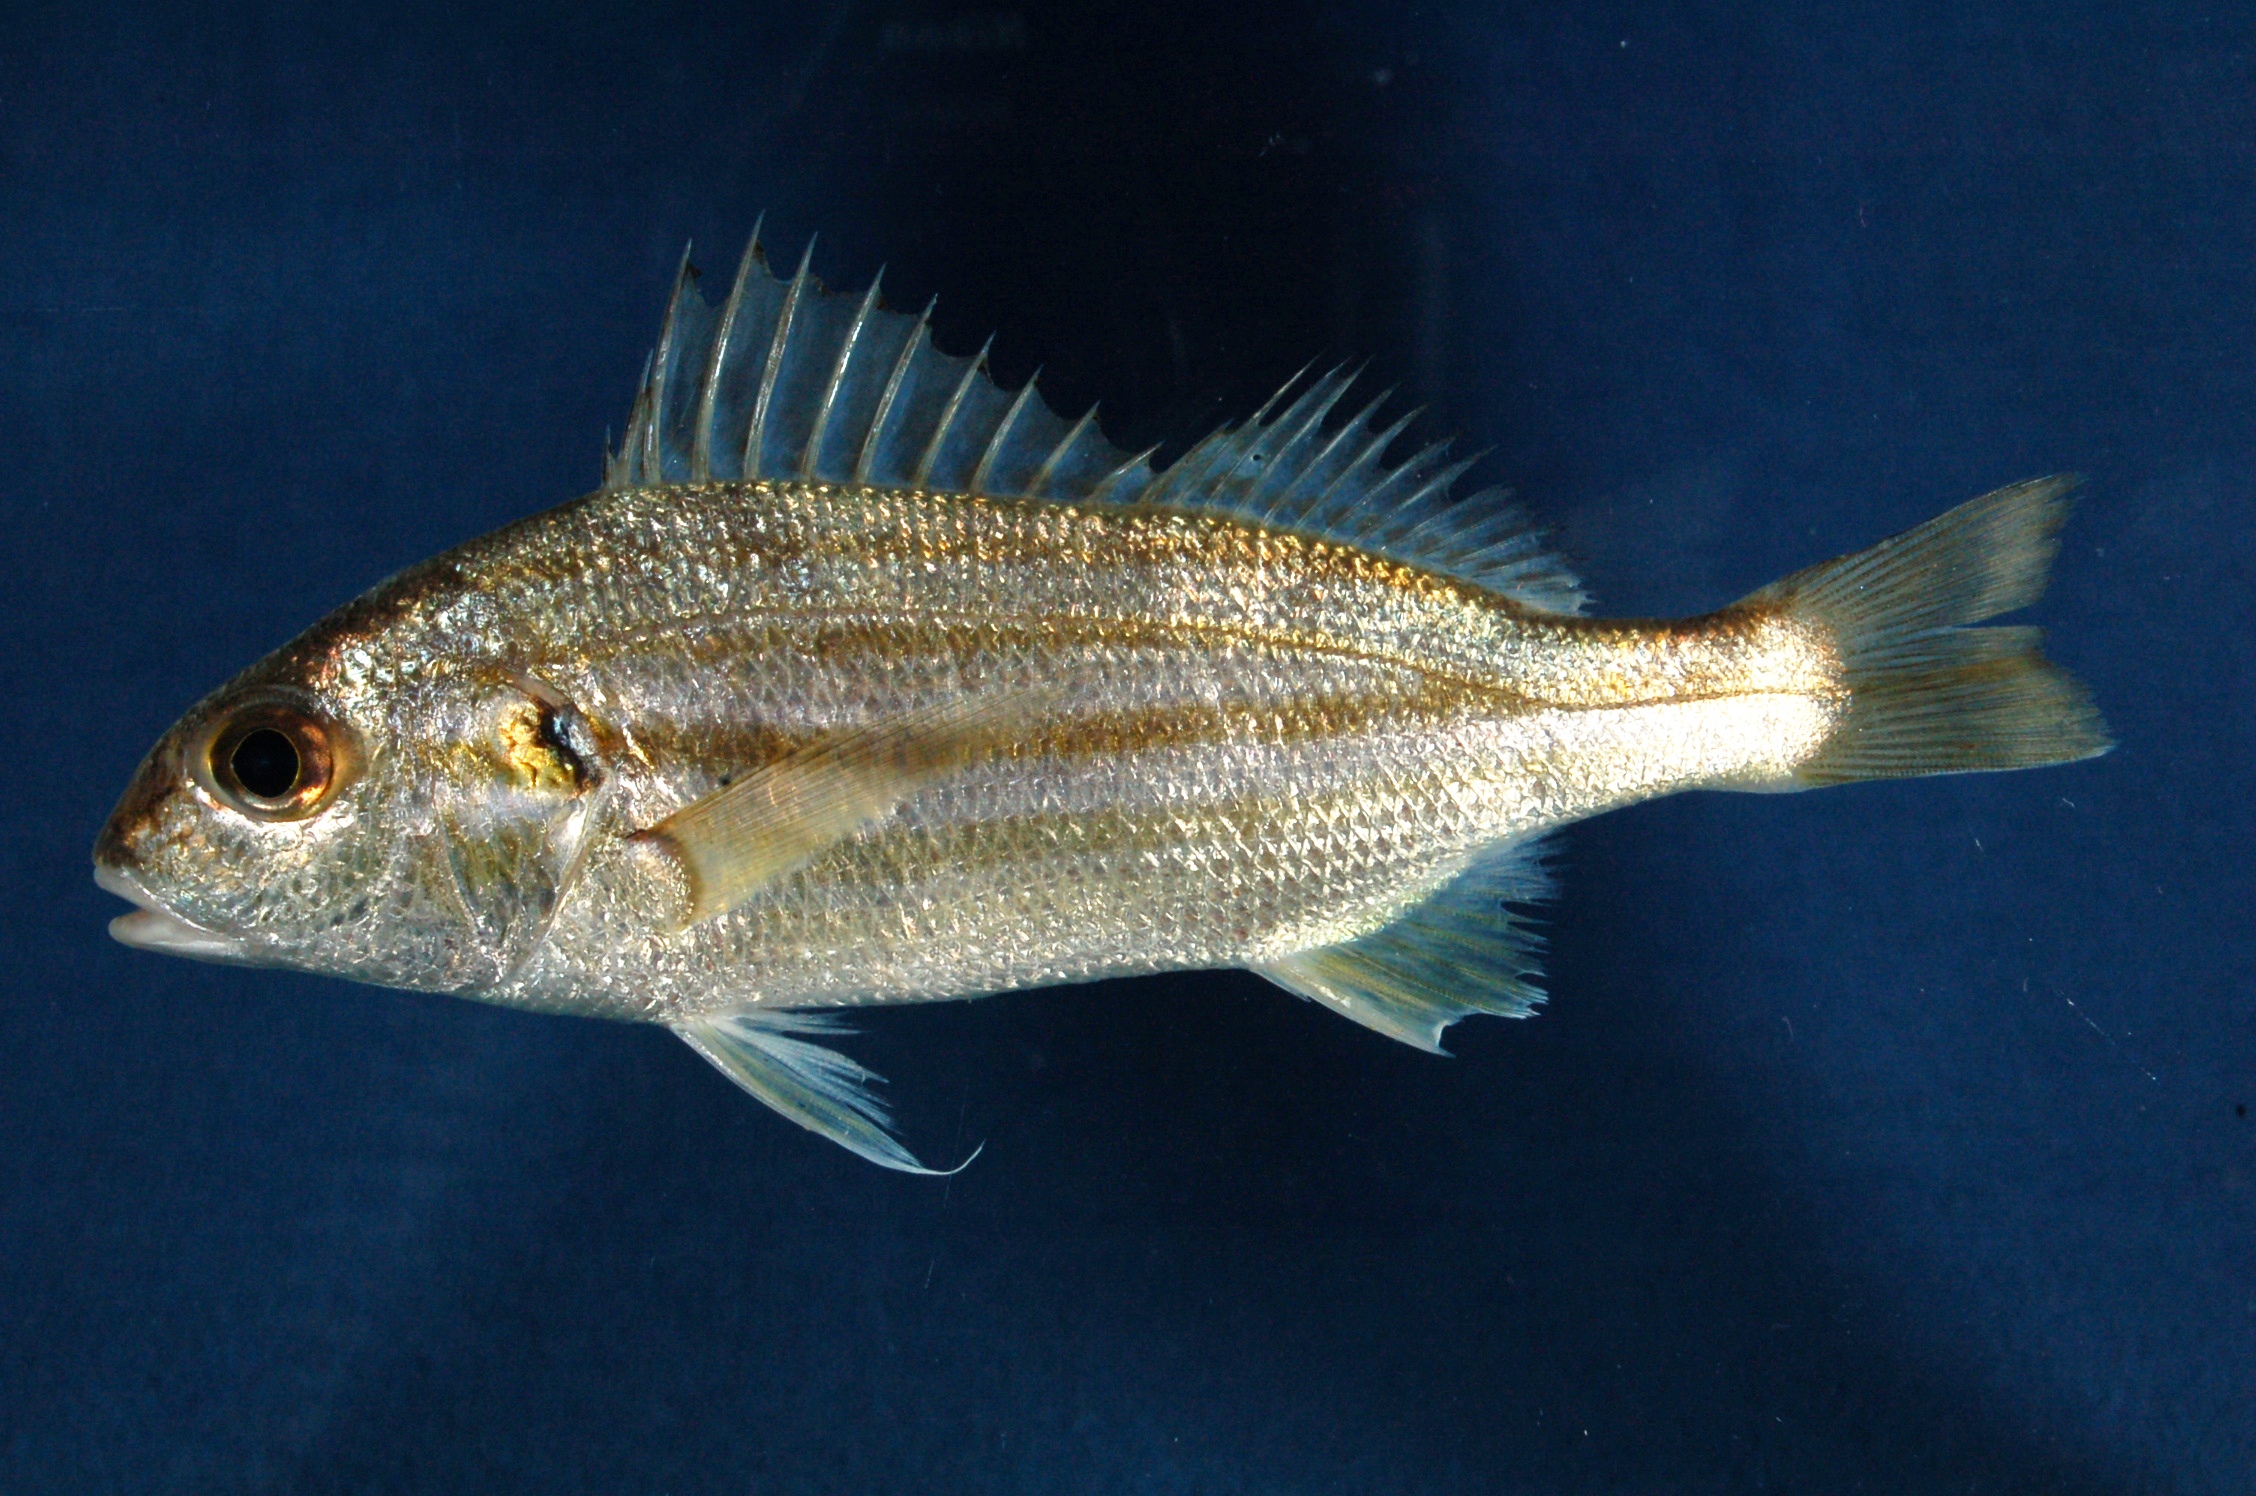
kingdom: Animalia
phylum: Chordata
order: Perciformes
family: Haemulidae
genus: Pomadasys
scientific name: Pomadasys stridens
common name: Striped piggy
